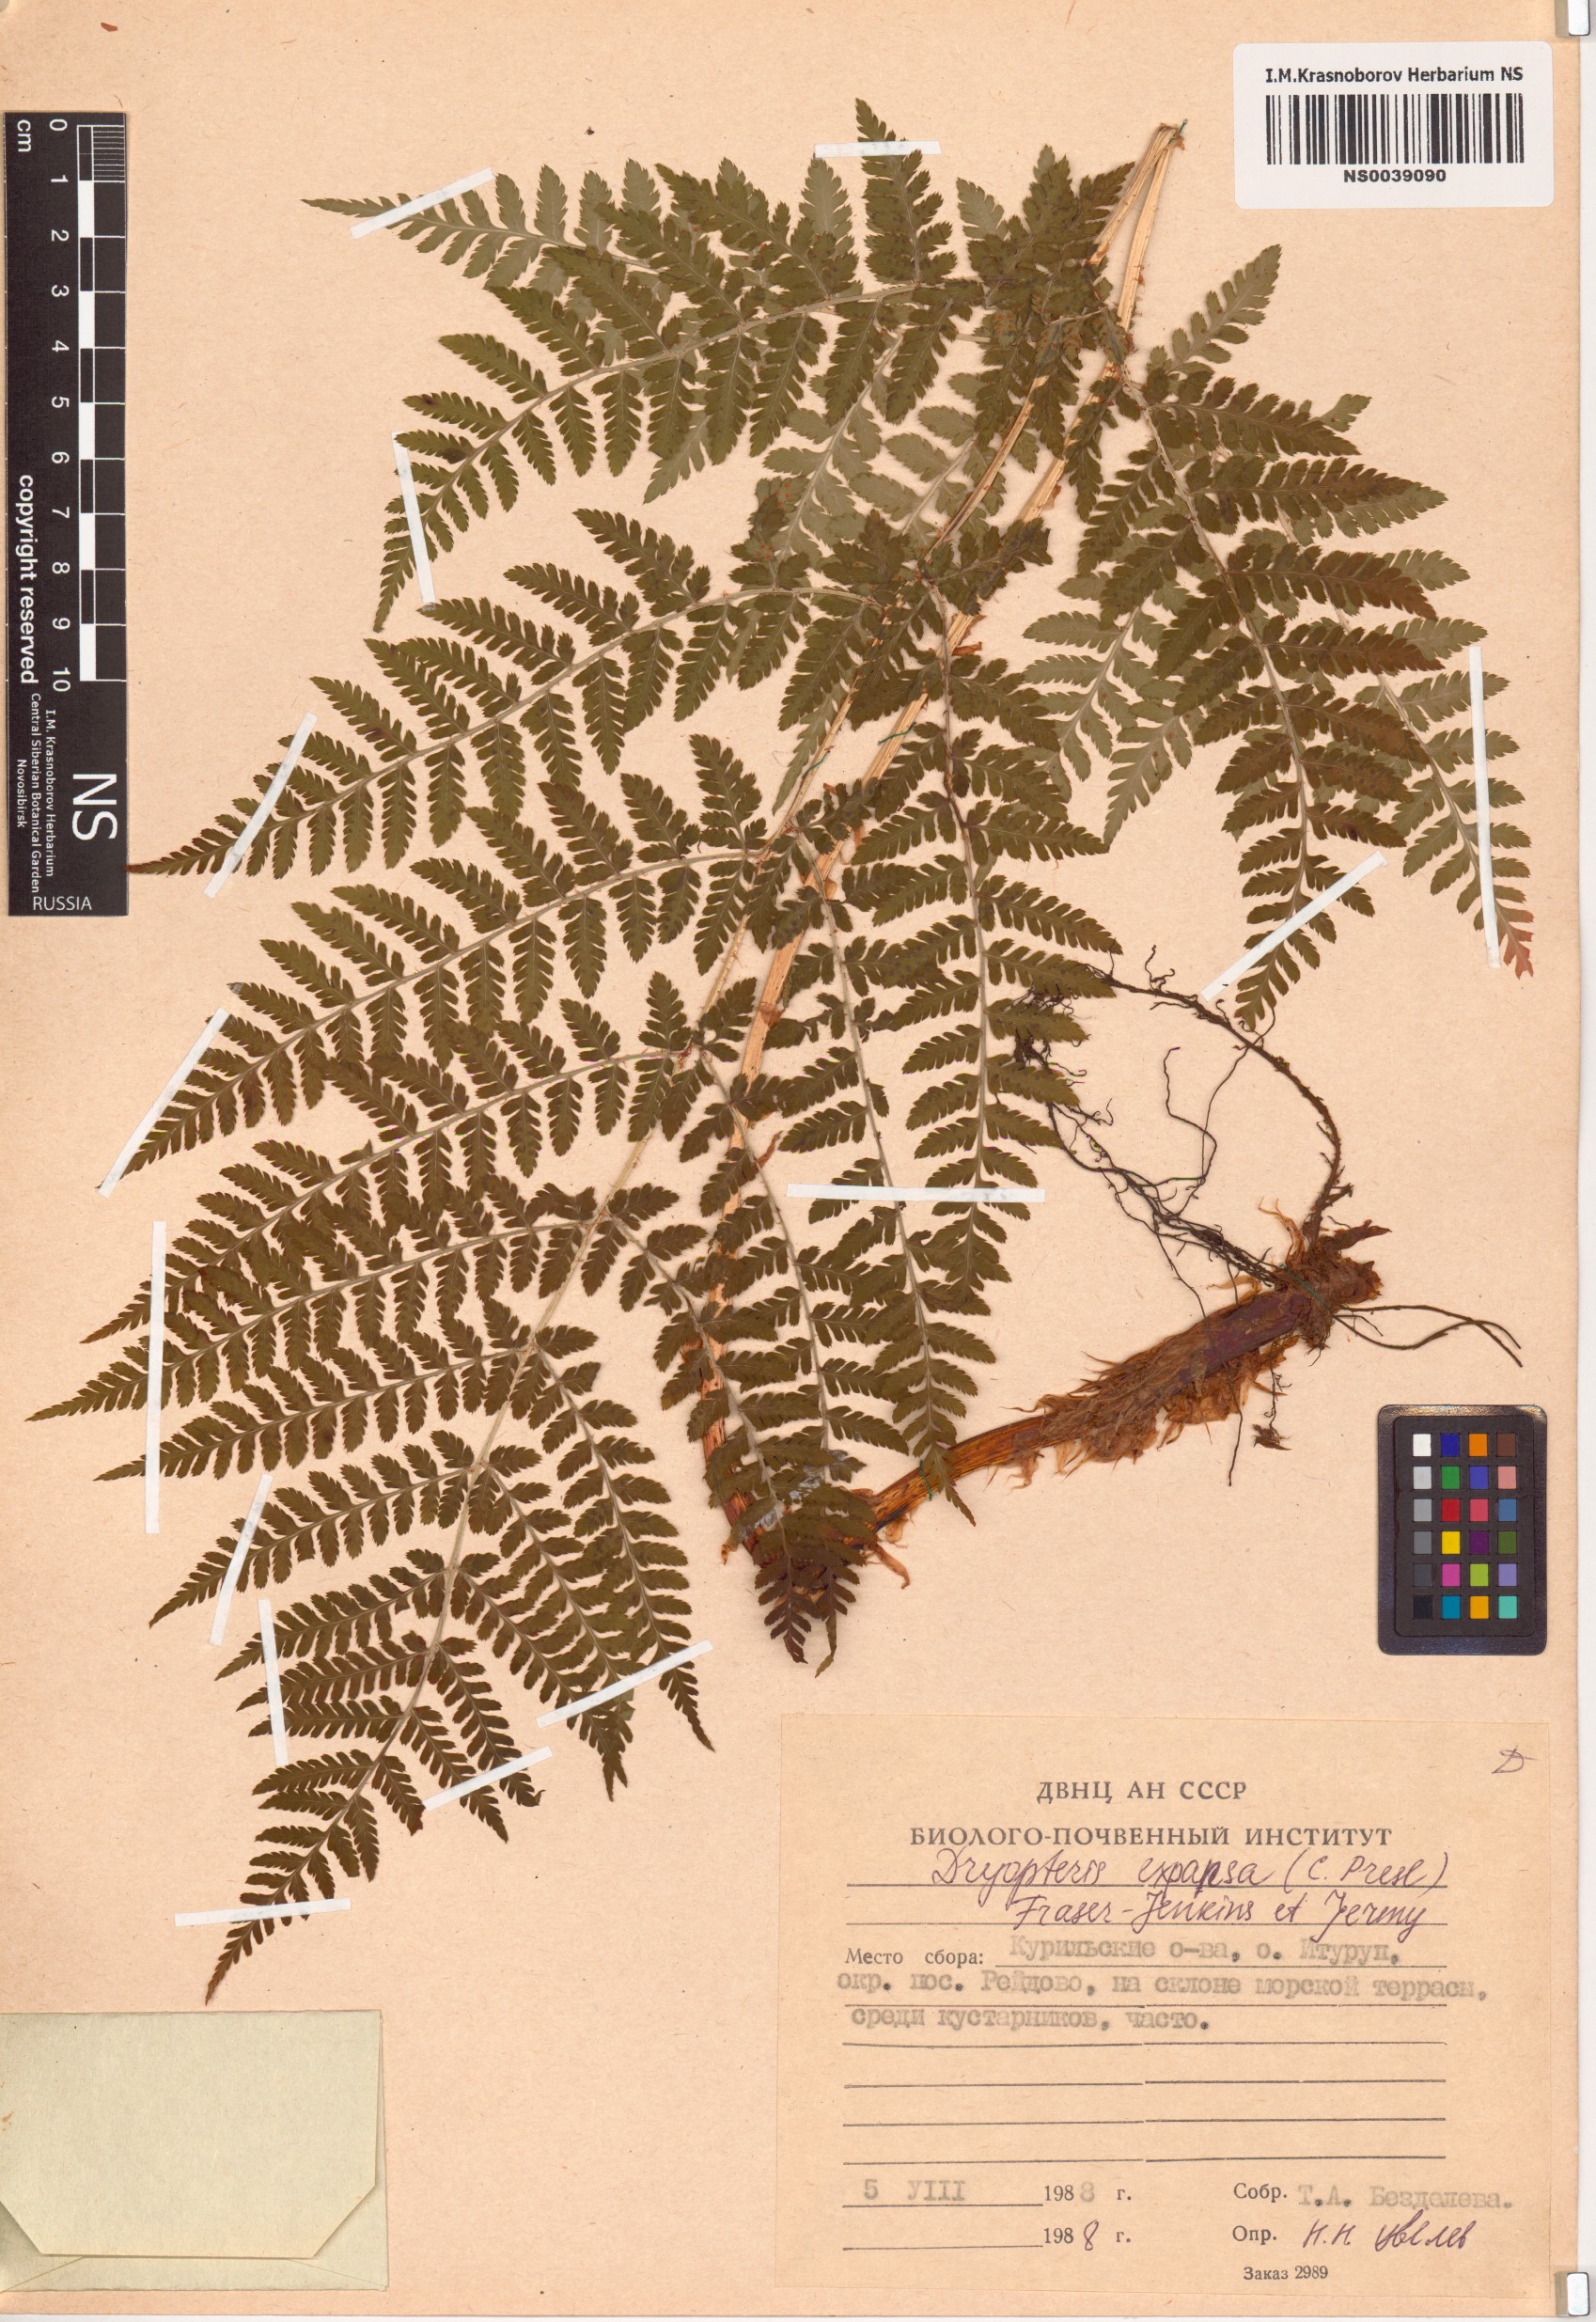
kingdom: Plantae
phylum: Tracheophyta
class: Polypodiopsida
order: Polypodiales
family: Dryopteridaceae
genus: Dryopteris
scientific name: Dryopteris expansa
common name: Northern buckler fern
